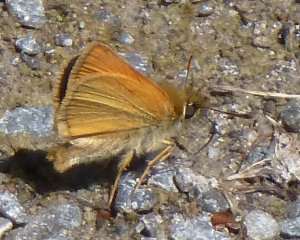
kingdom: Animalia
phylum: Arthropoda
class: Insecta
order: Lepidoptera
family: Hesperiidae
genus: Ancyloxypha
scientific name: Ancyloxypha numitor
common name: Least Skipper
